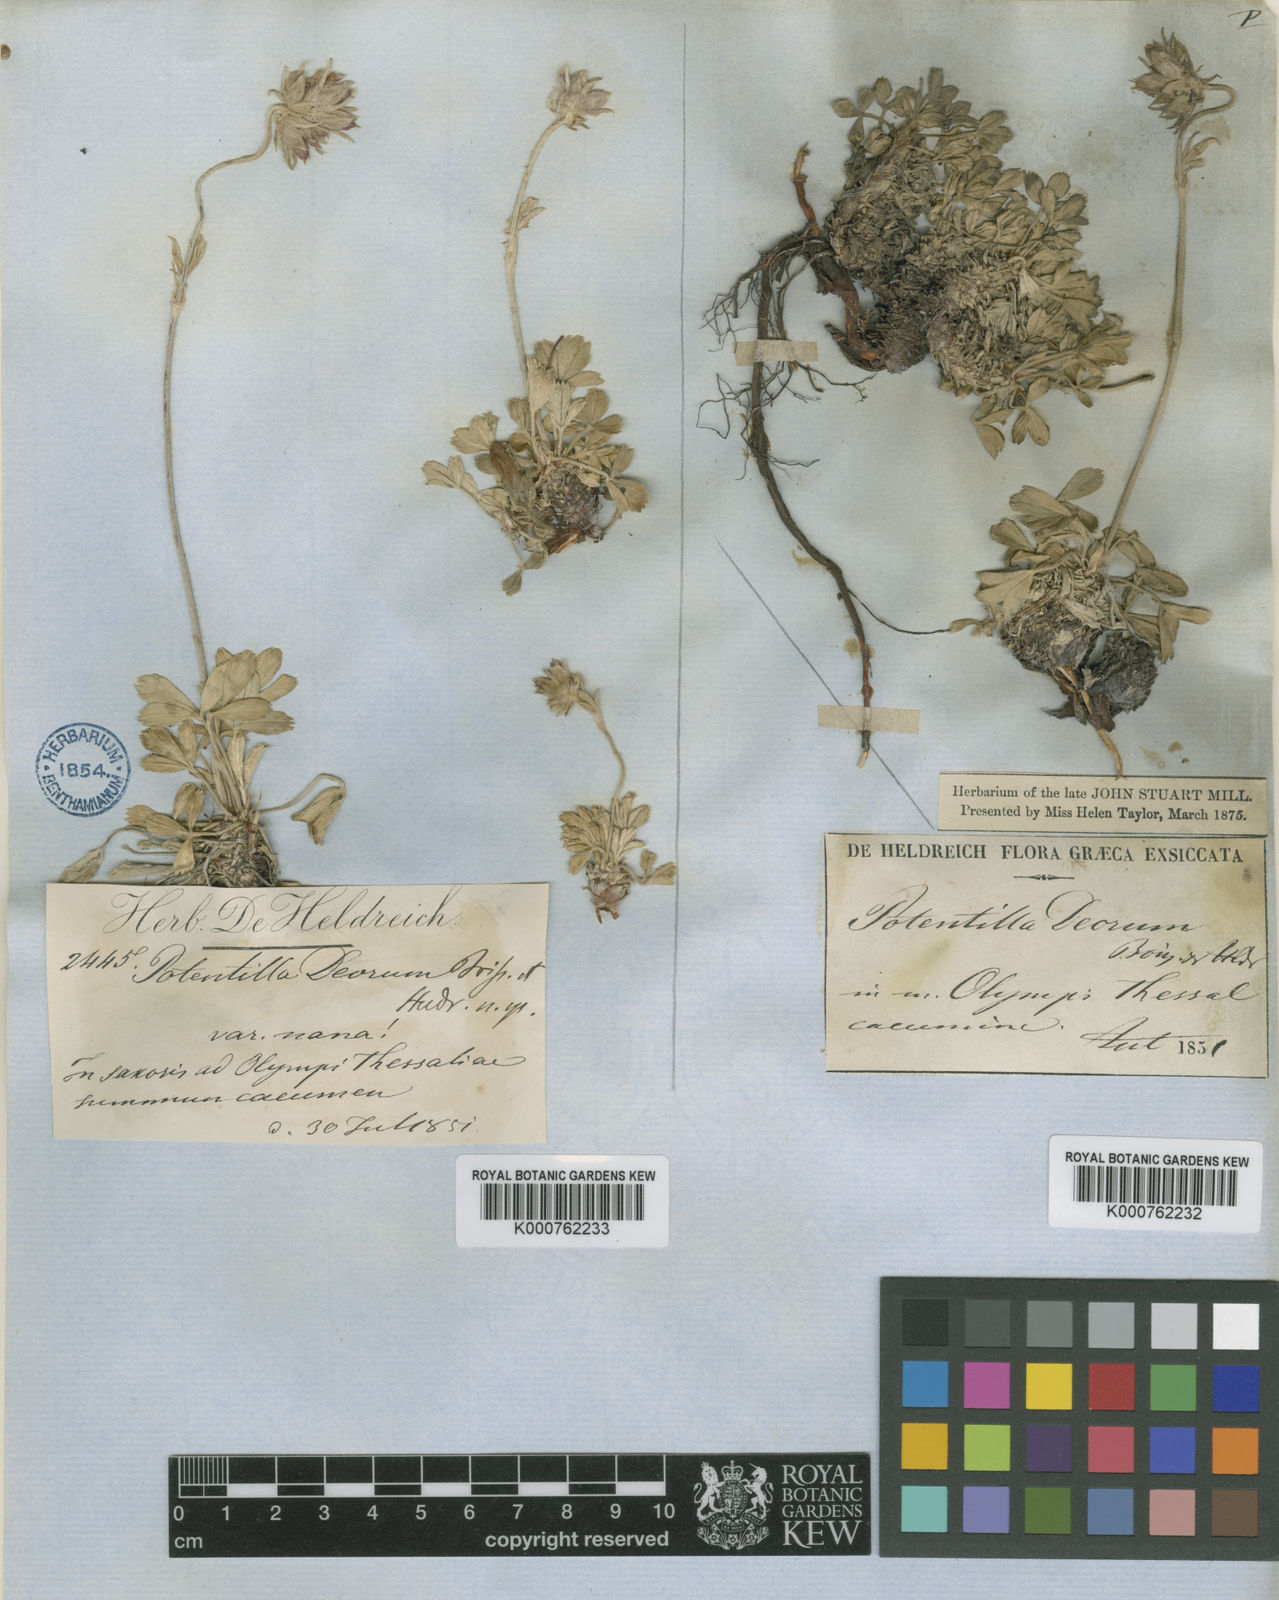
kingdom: Plantae
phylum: Tracheophyta
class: Magnoliopsida
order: Rosales
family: Rosaceae
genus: Potentilla
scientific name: Potentilla deorum
